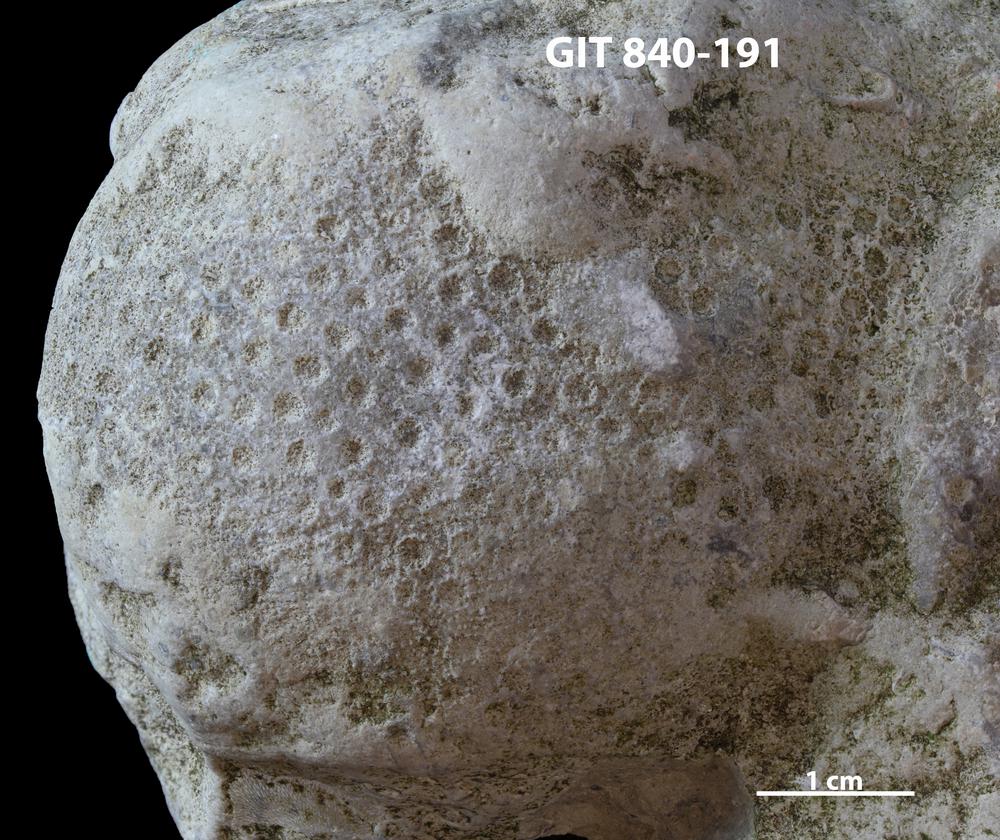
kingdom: Animalia
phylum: Xenacoelomorpha
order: Acoela
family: Proporidae
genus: Propora
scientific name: Propora
